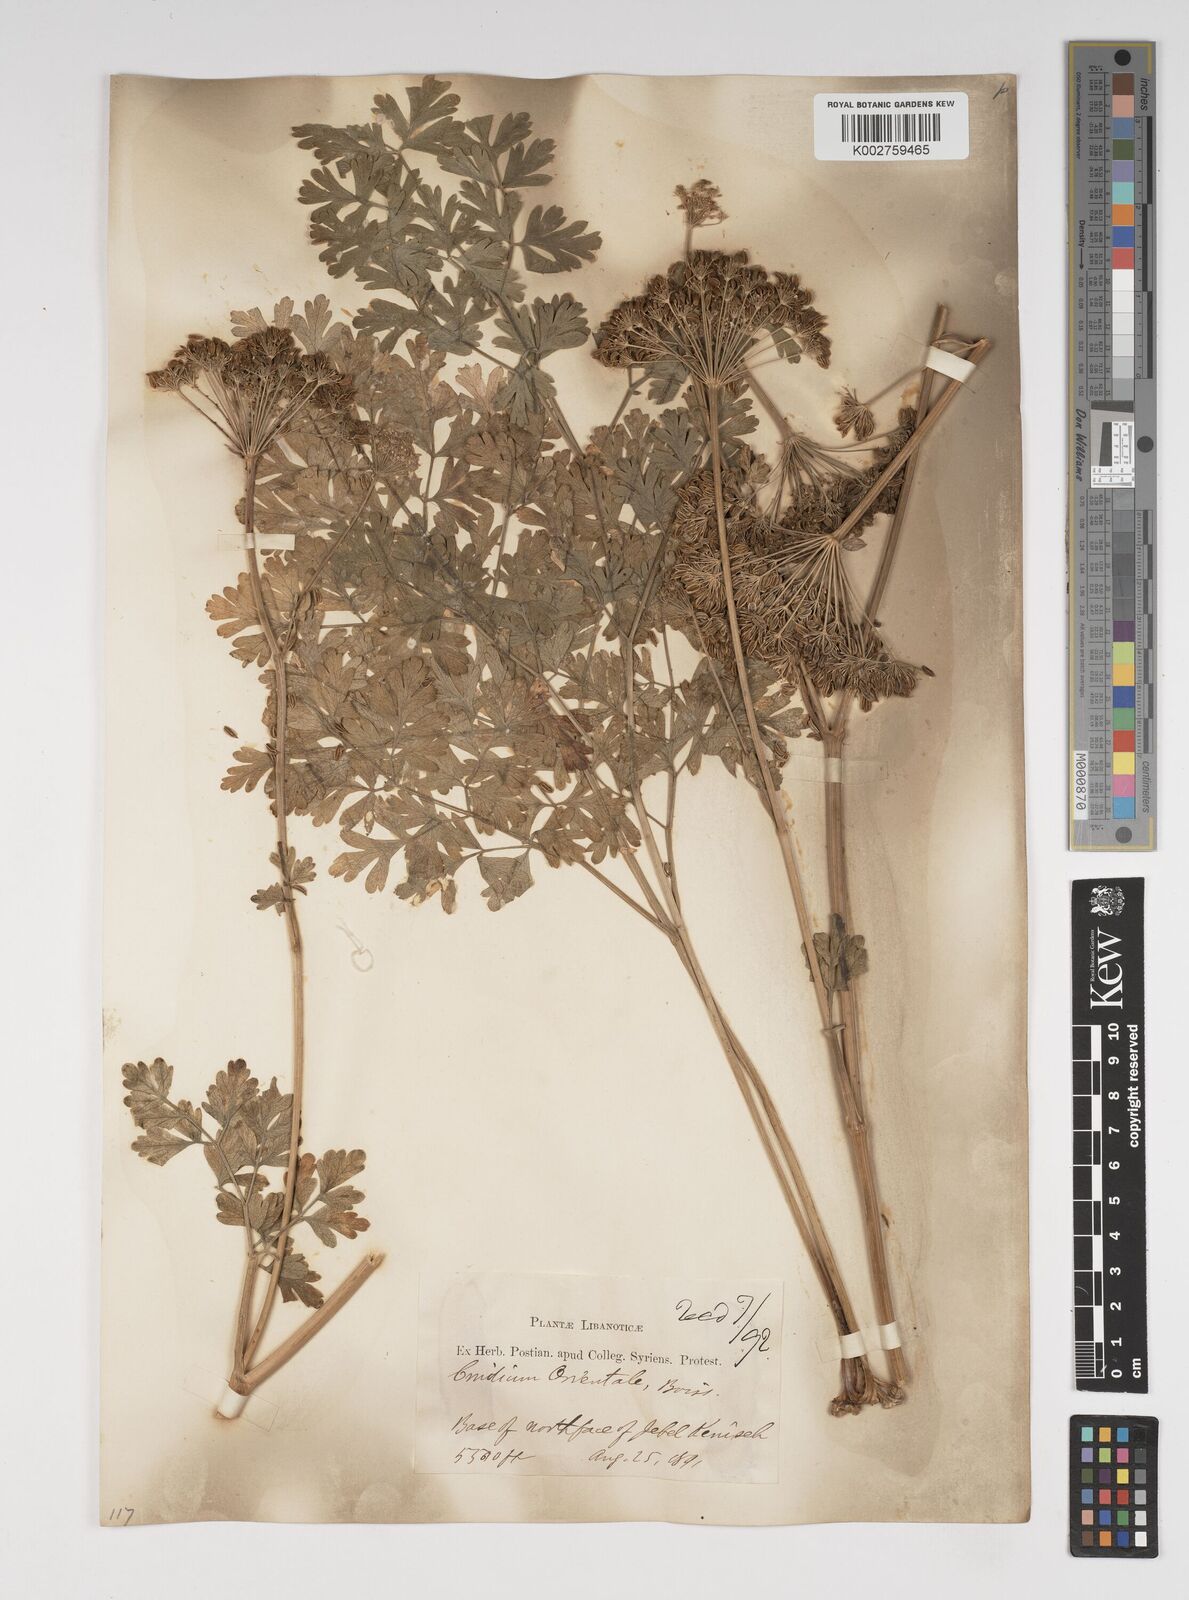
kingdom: Plantae
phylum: Tracheophyta
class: Magnoliopsida
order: Apiales
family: Apiaceae
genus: Katapsuxis
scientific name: Katapsuxis silaifolia
